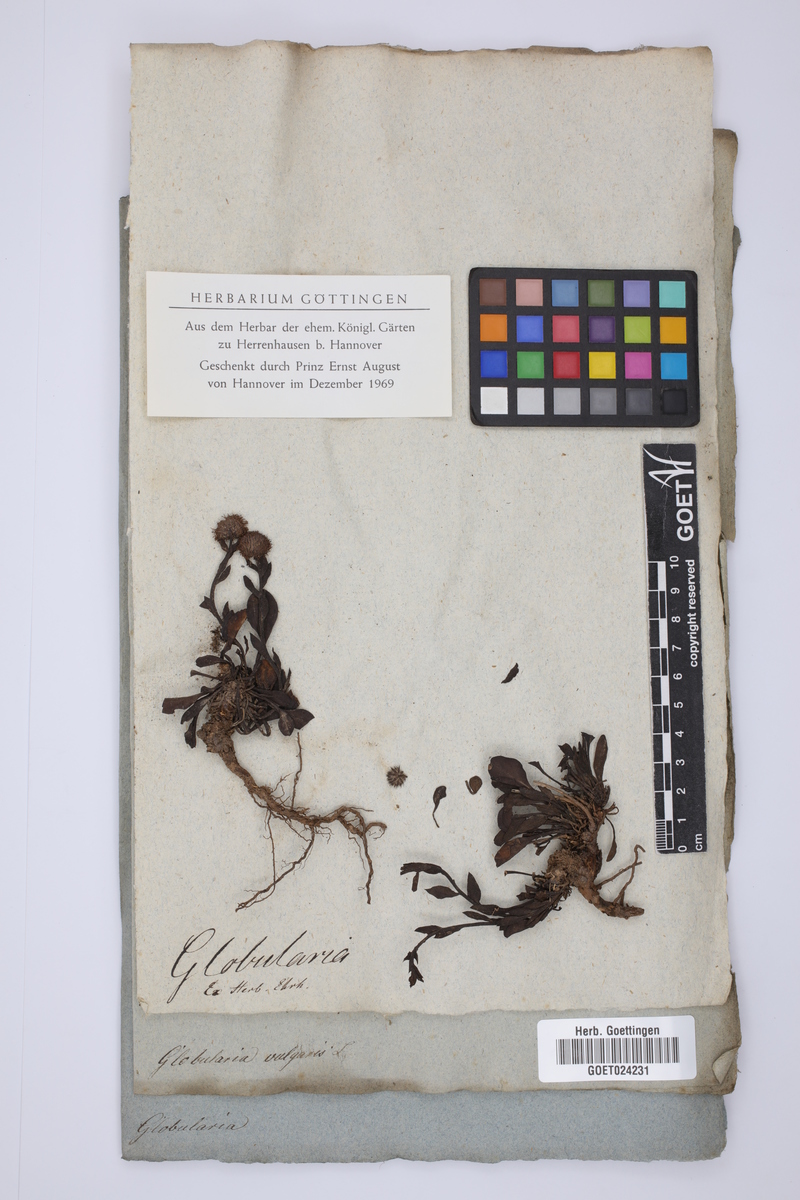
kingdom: Plantae
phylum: Tracheophyta
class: Magnoliopsida
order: Lamiales
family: Plantaginaceae
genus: Globularia
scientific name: Globularia vulgaris
